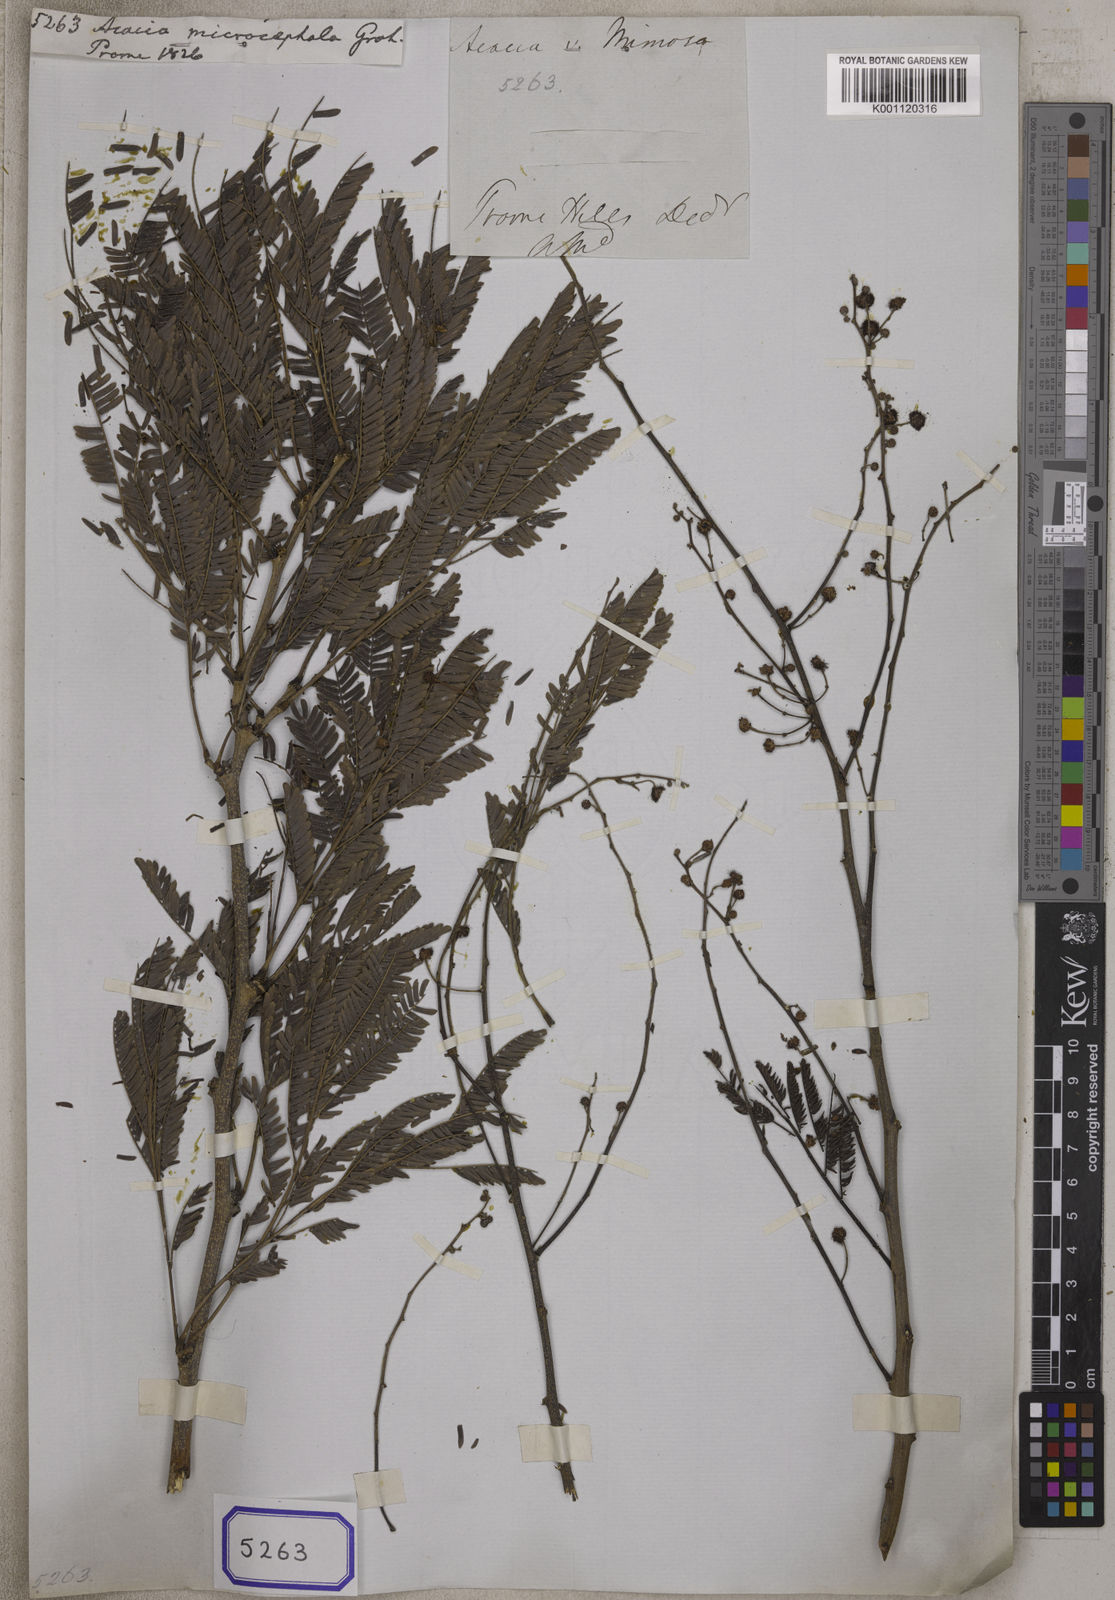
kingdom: Plantae
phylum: Tracheophyta
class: Magnoliopsida
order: Fabales
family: Fabaceae
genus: Vachellia
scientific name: Vachellia leucophloea
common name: Distiller's acacia
